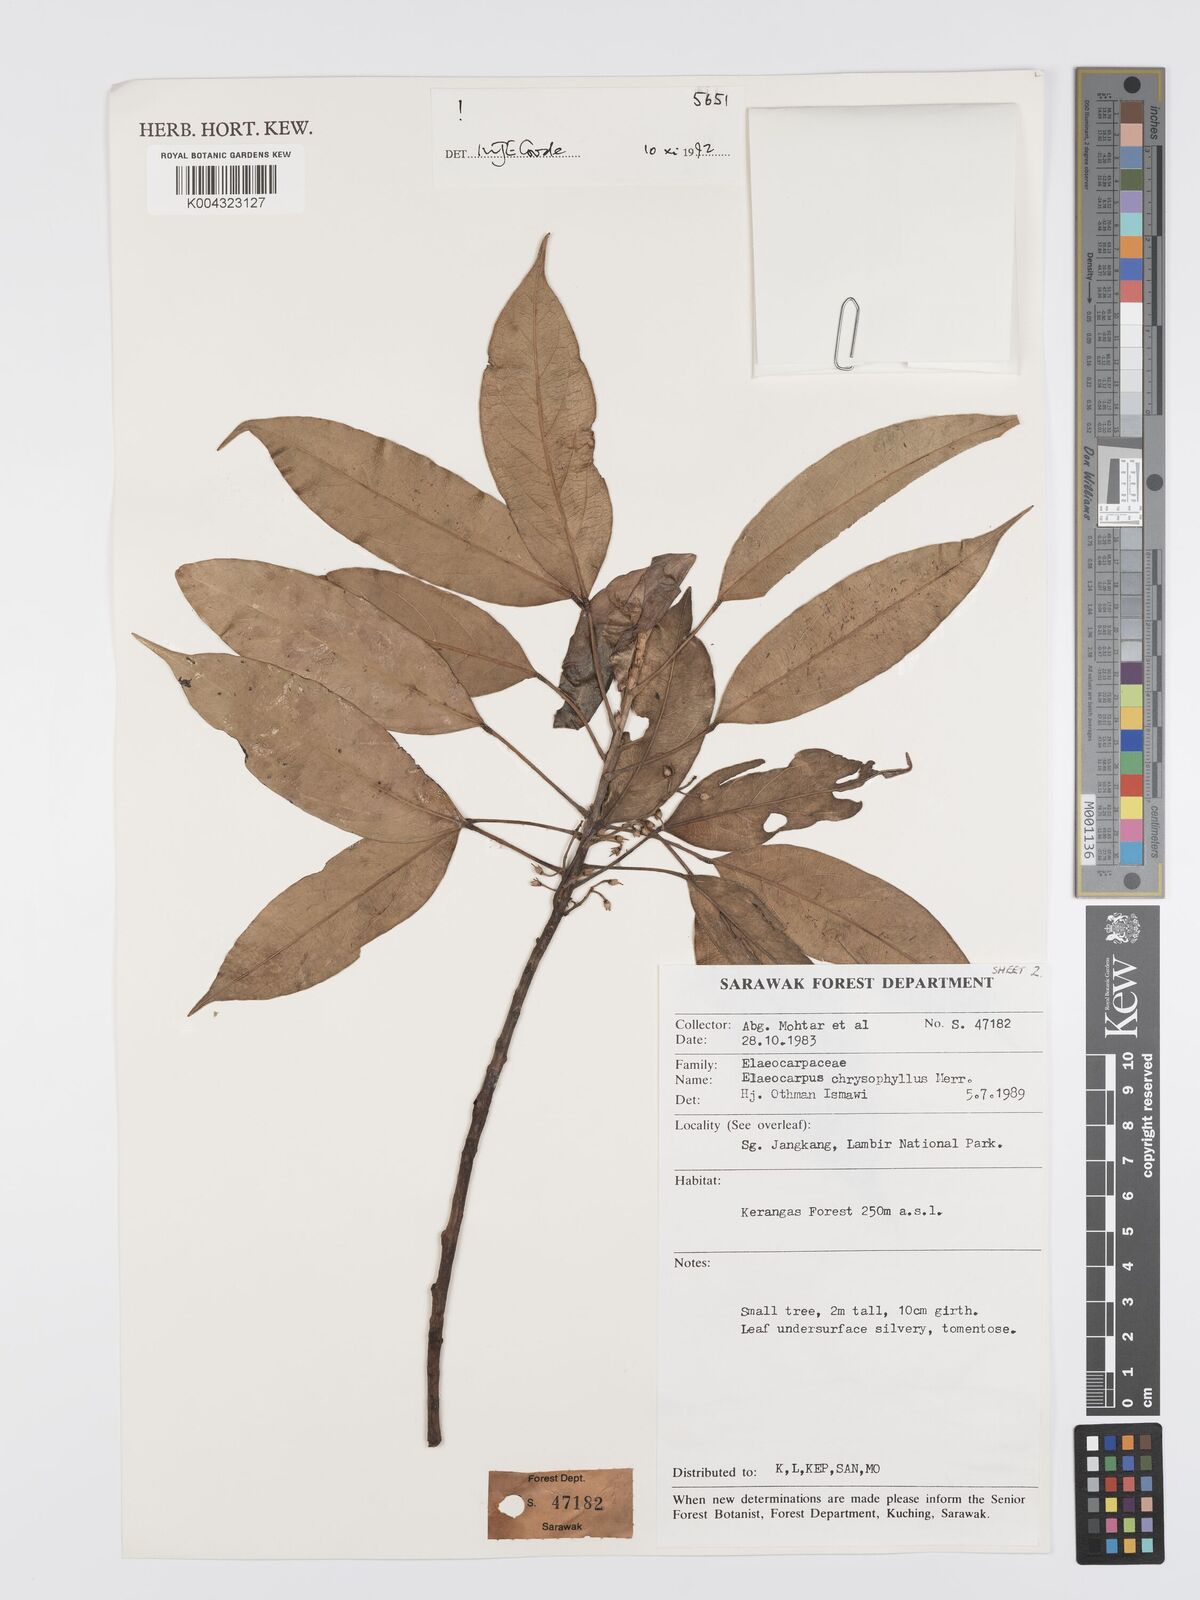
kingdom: Plantae
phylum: Tracheophyta
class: Magnoliopsida
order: Oxalidales
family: Elaeocarpaceae
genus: Elaeocarpus
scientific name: Elaeocarpus chrysophyllus
